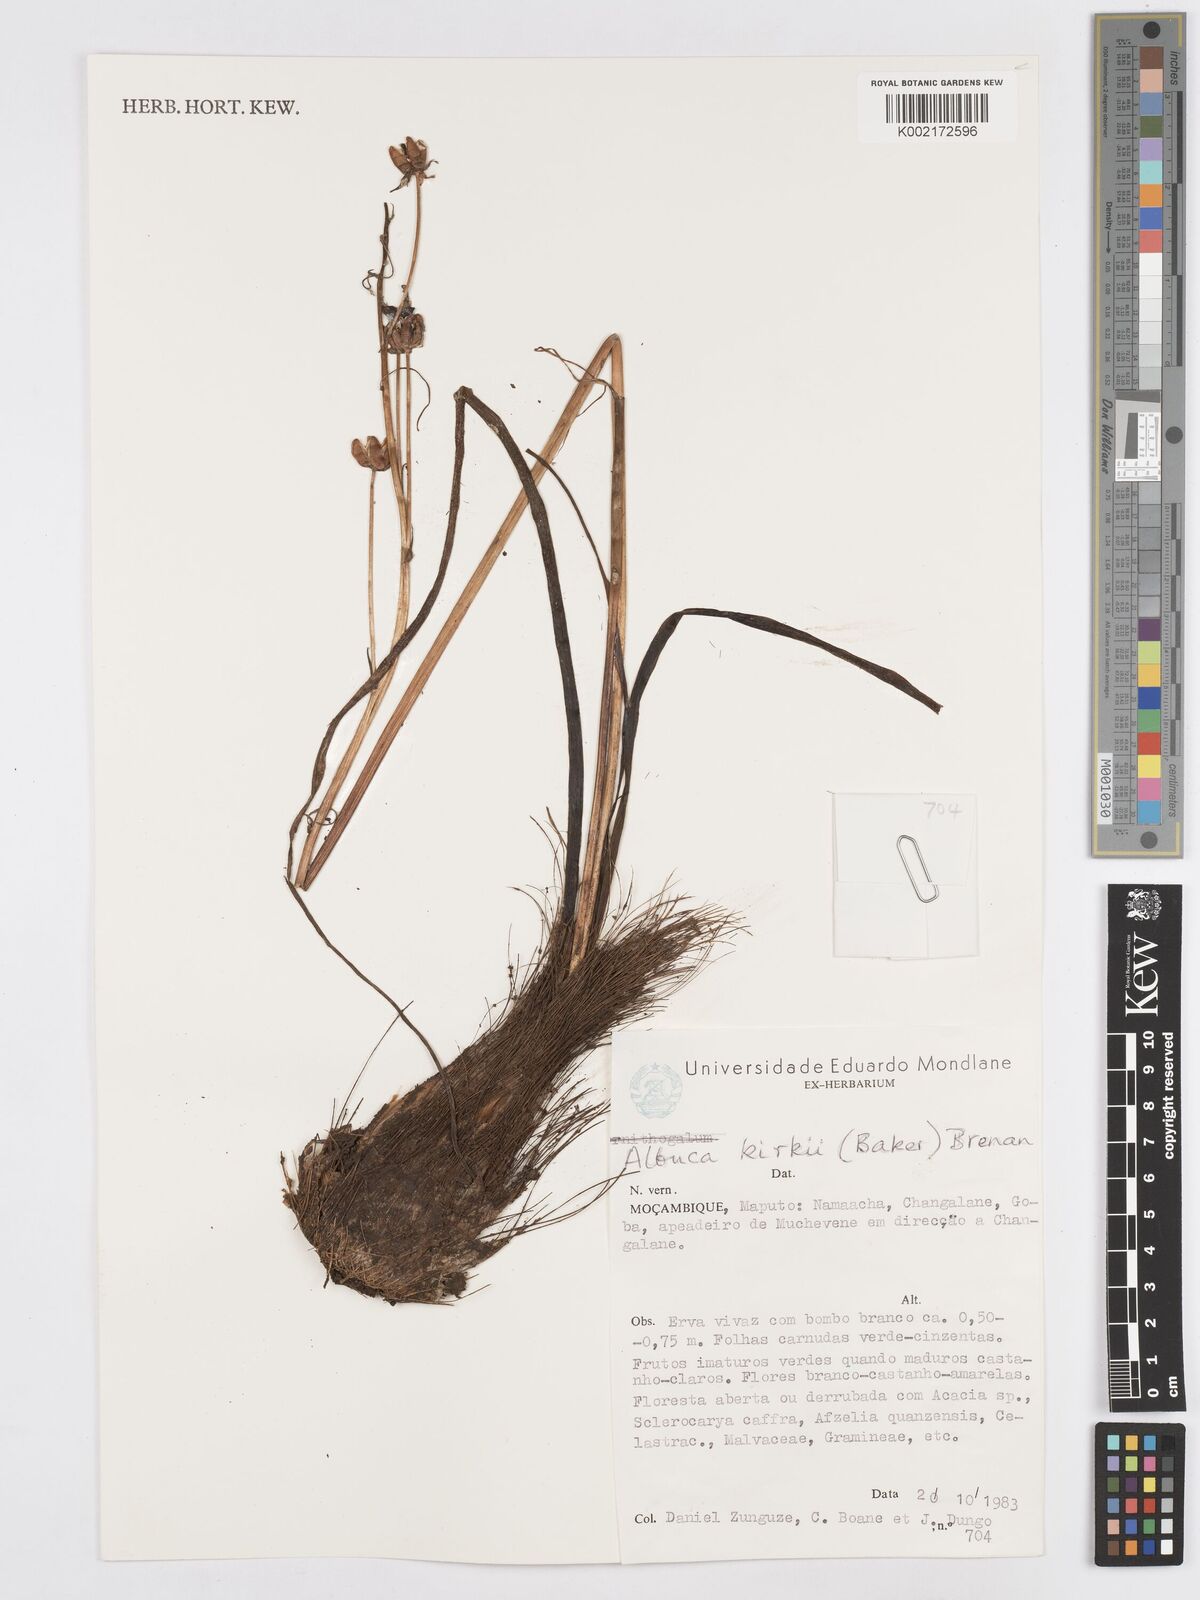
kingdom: Plantae
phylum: Tracheophyta
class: Liliopsida
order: Asparagales
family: Asparagaceae
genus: Albuca
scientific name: Albuca kirkii
